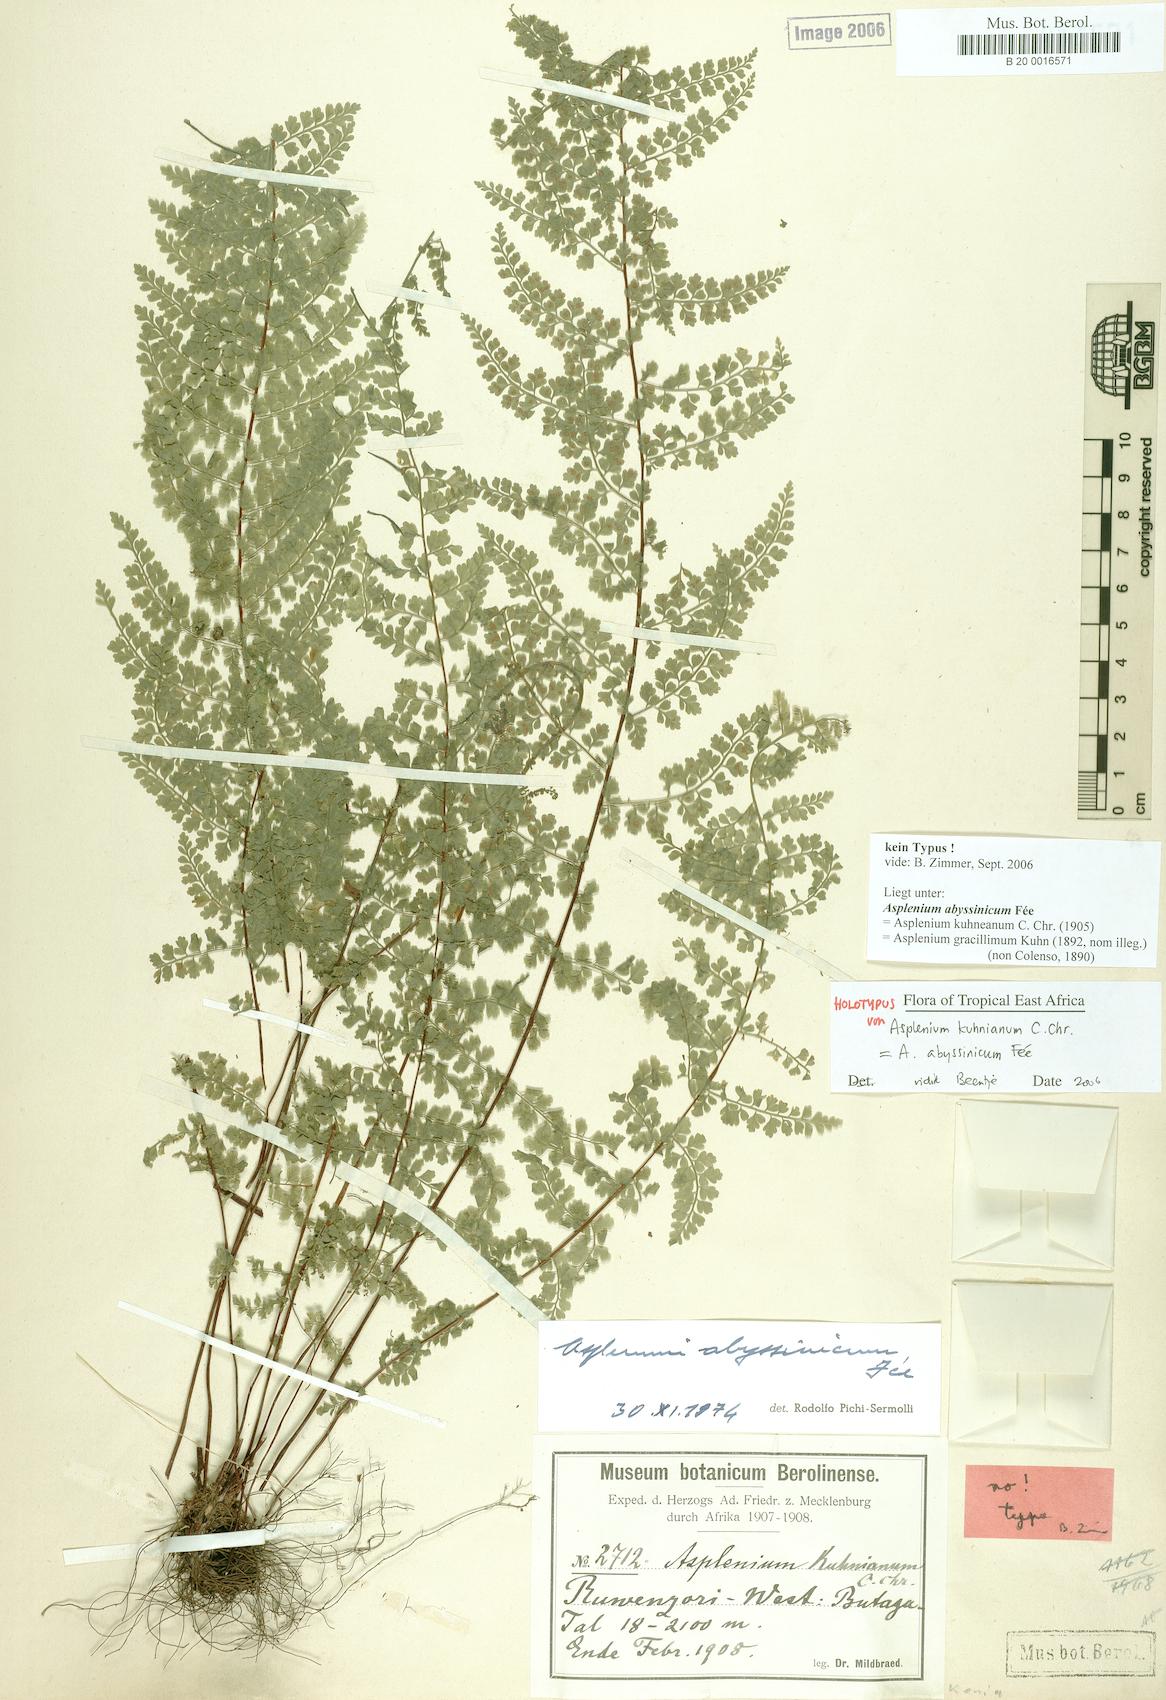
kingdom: Plantae
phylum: Tracheophyta
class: Polypodiopsida
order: Polypodiales
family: Aspleniaceae
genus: Asplenium
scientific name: Asplenium abyssinicum
